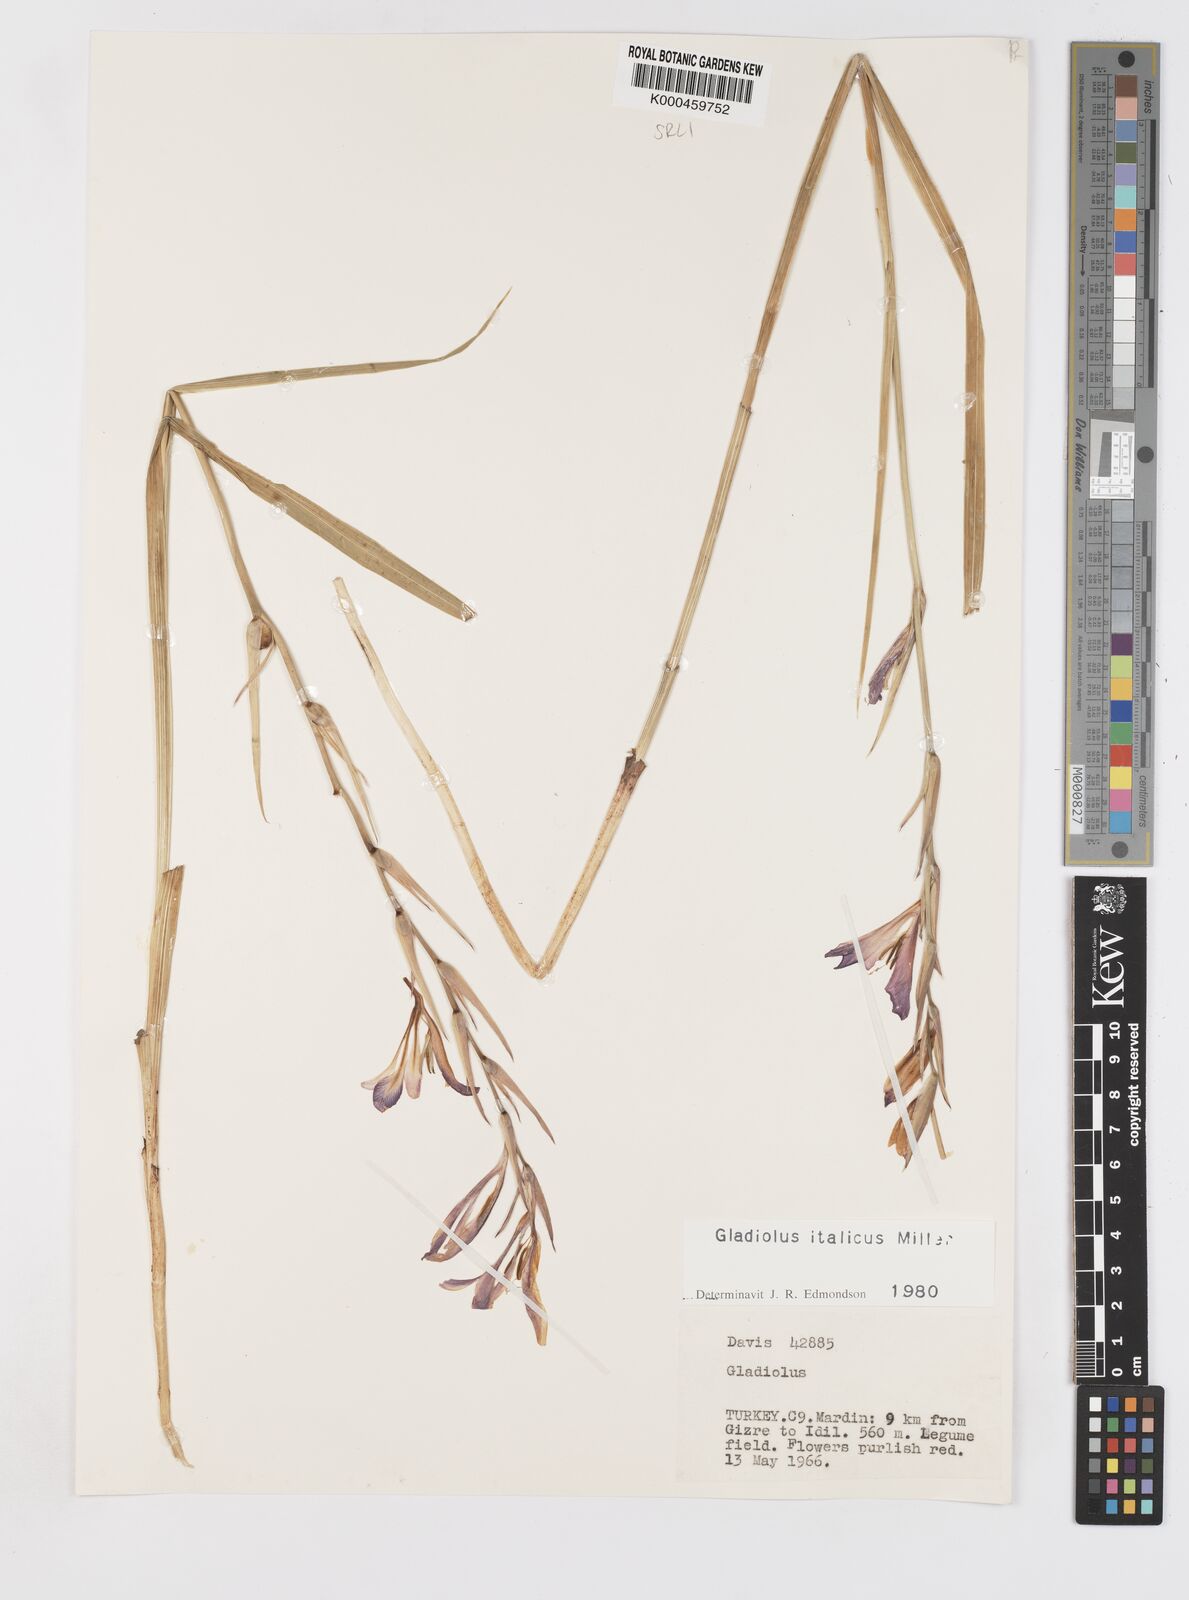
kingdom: Plantae
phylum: Tracheophyta
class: Liliopsida
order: Asparagales
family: Iridaceae
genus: Gladiolus
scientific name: Gladiolus italicus
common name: Field gladiolus
